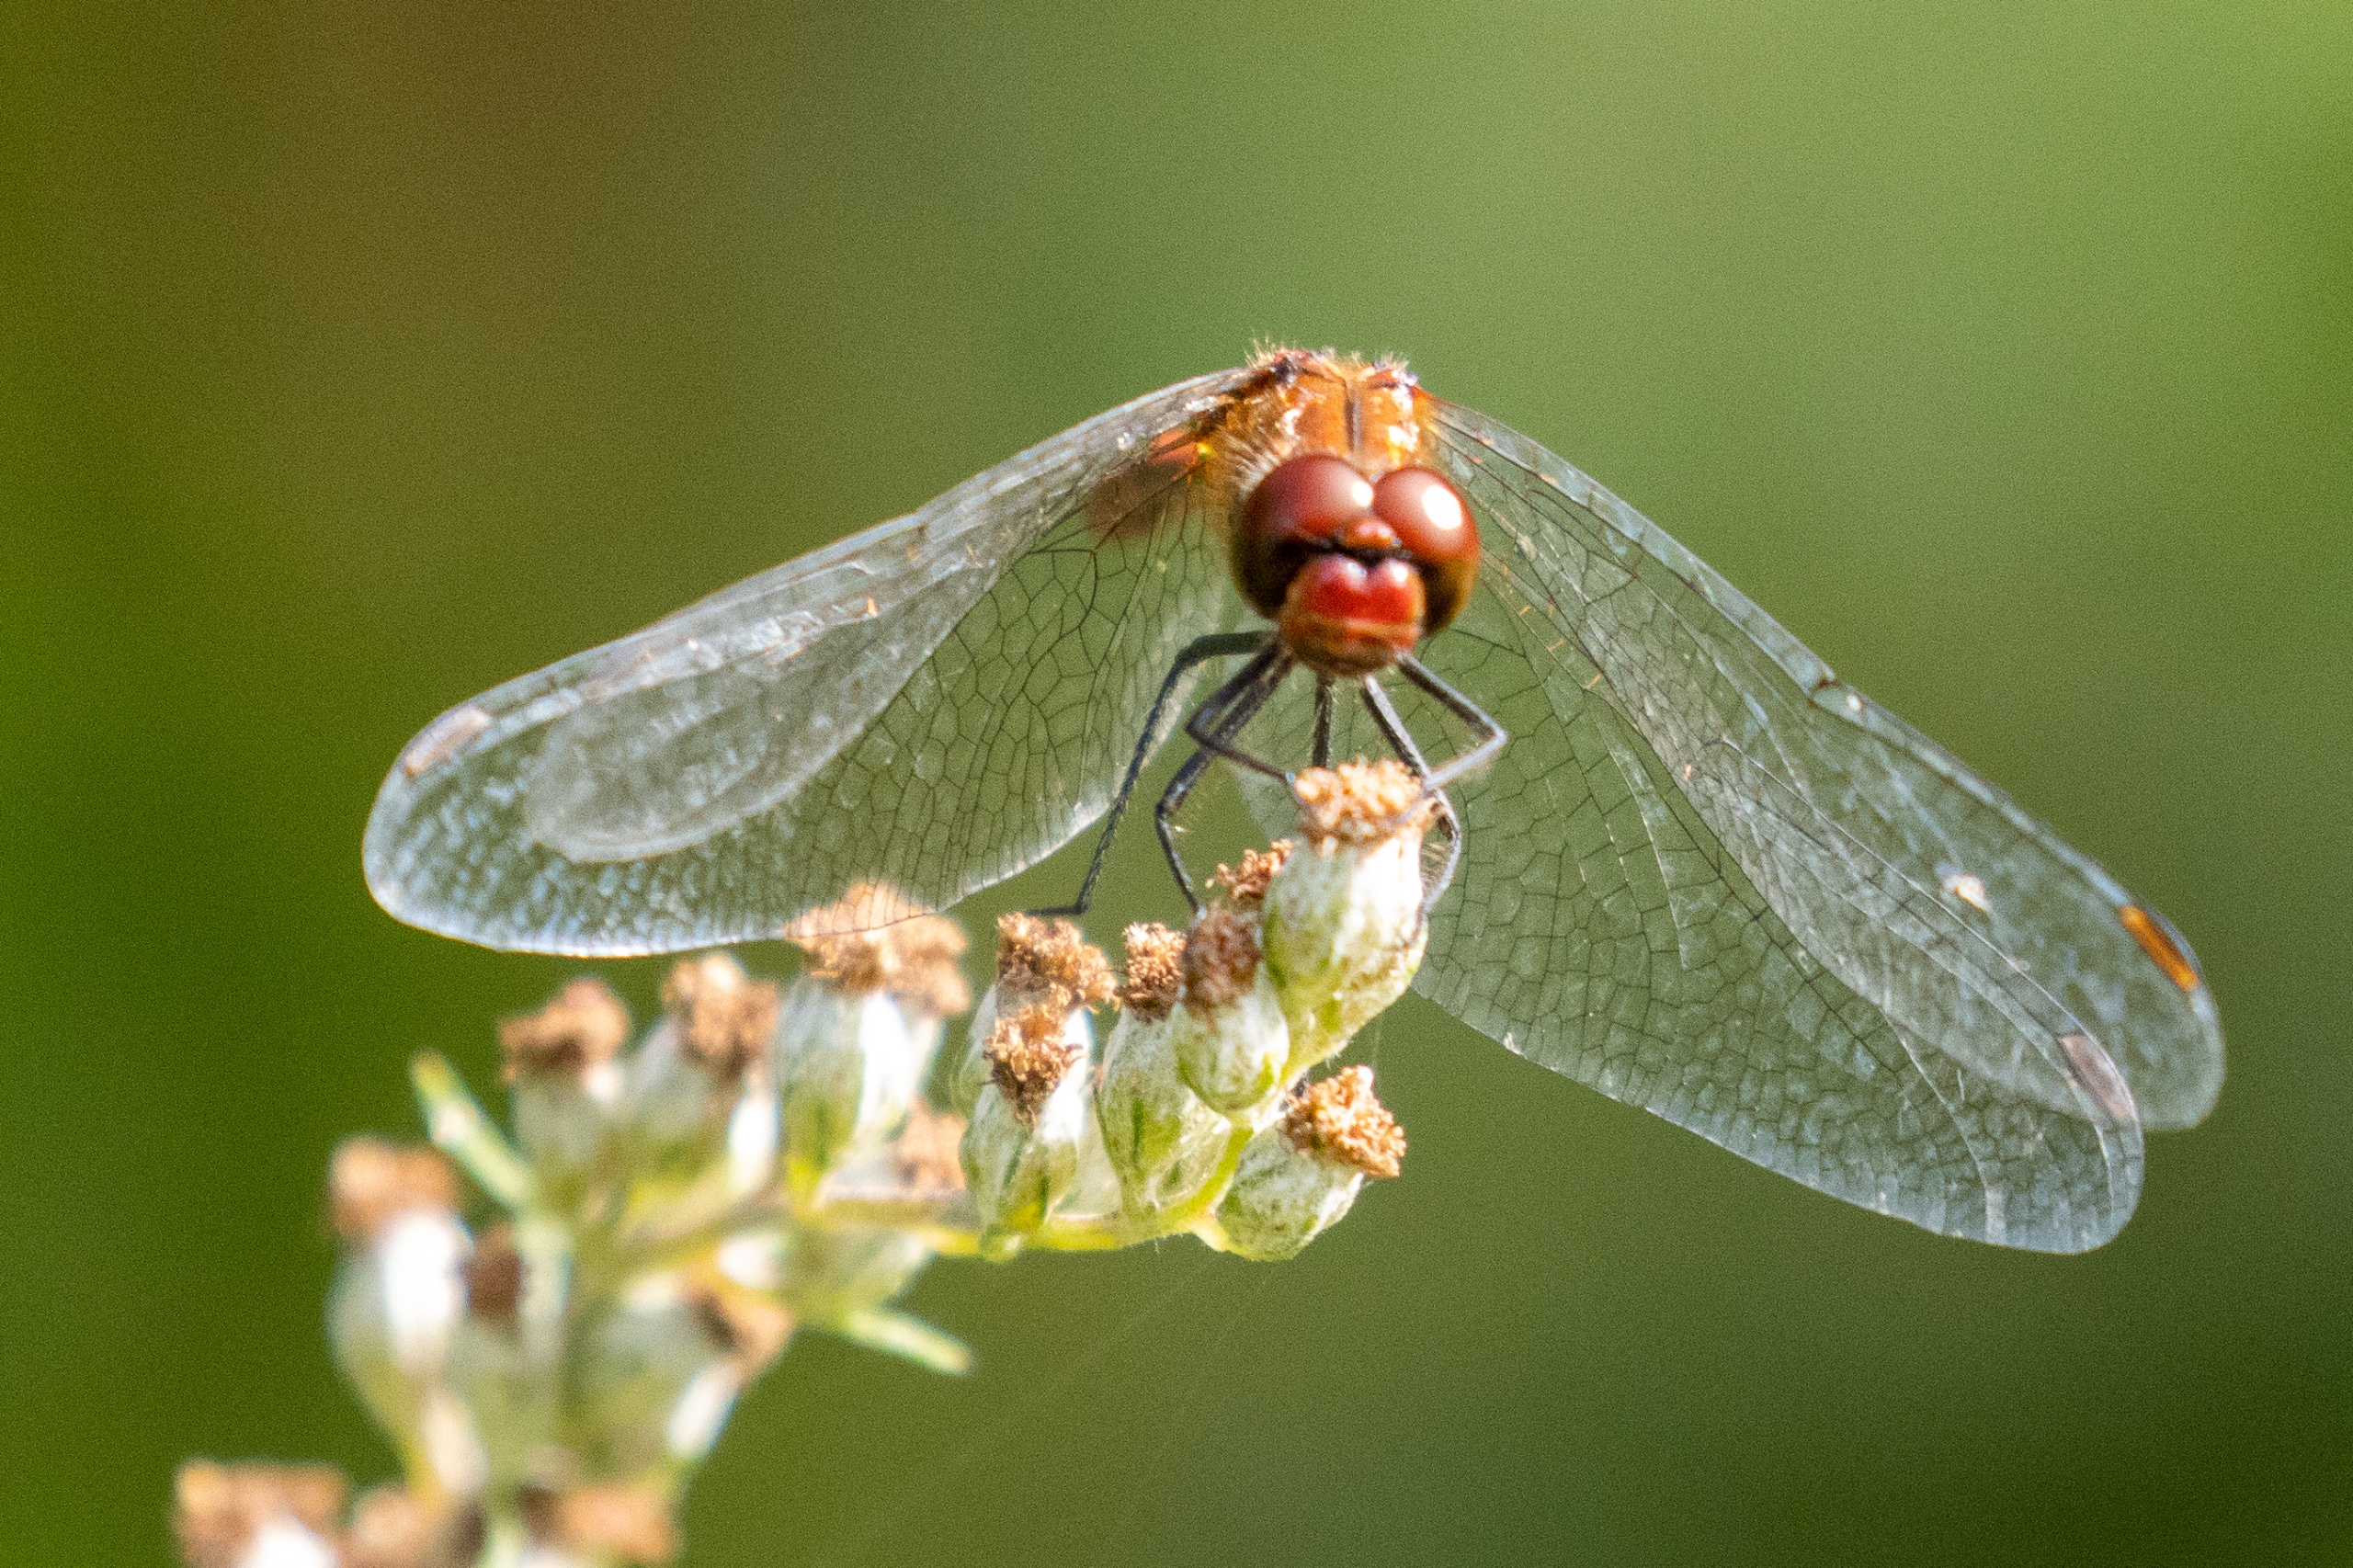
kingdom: Animalia
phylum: Arthropoda
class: Insecta
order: Odonata
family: Libellulidae
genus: Sympetrum
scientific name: Sympetrum sanguineum
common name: Blodrød hedelibel
